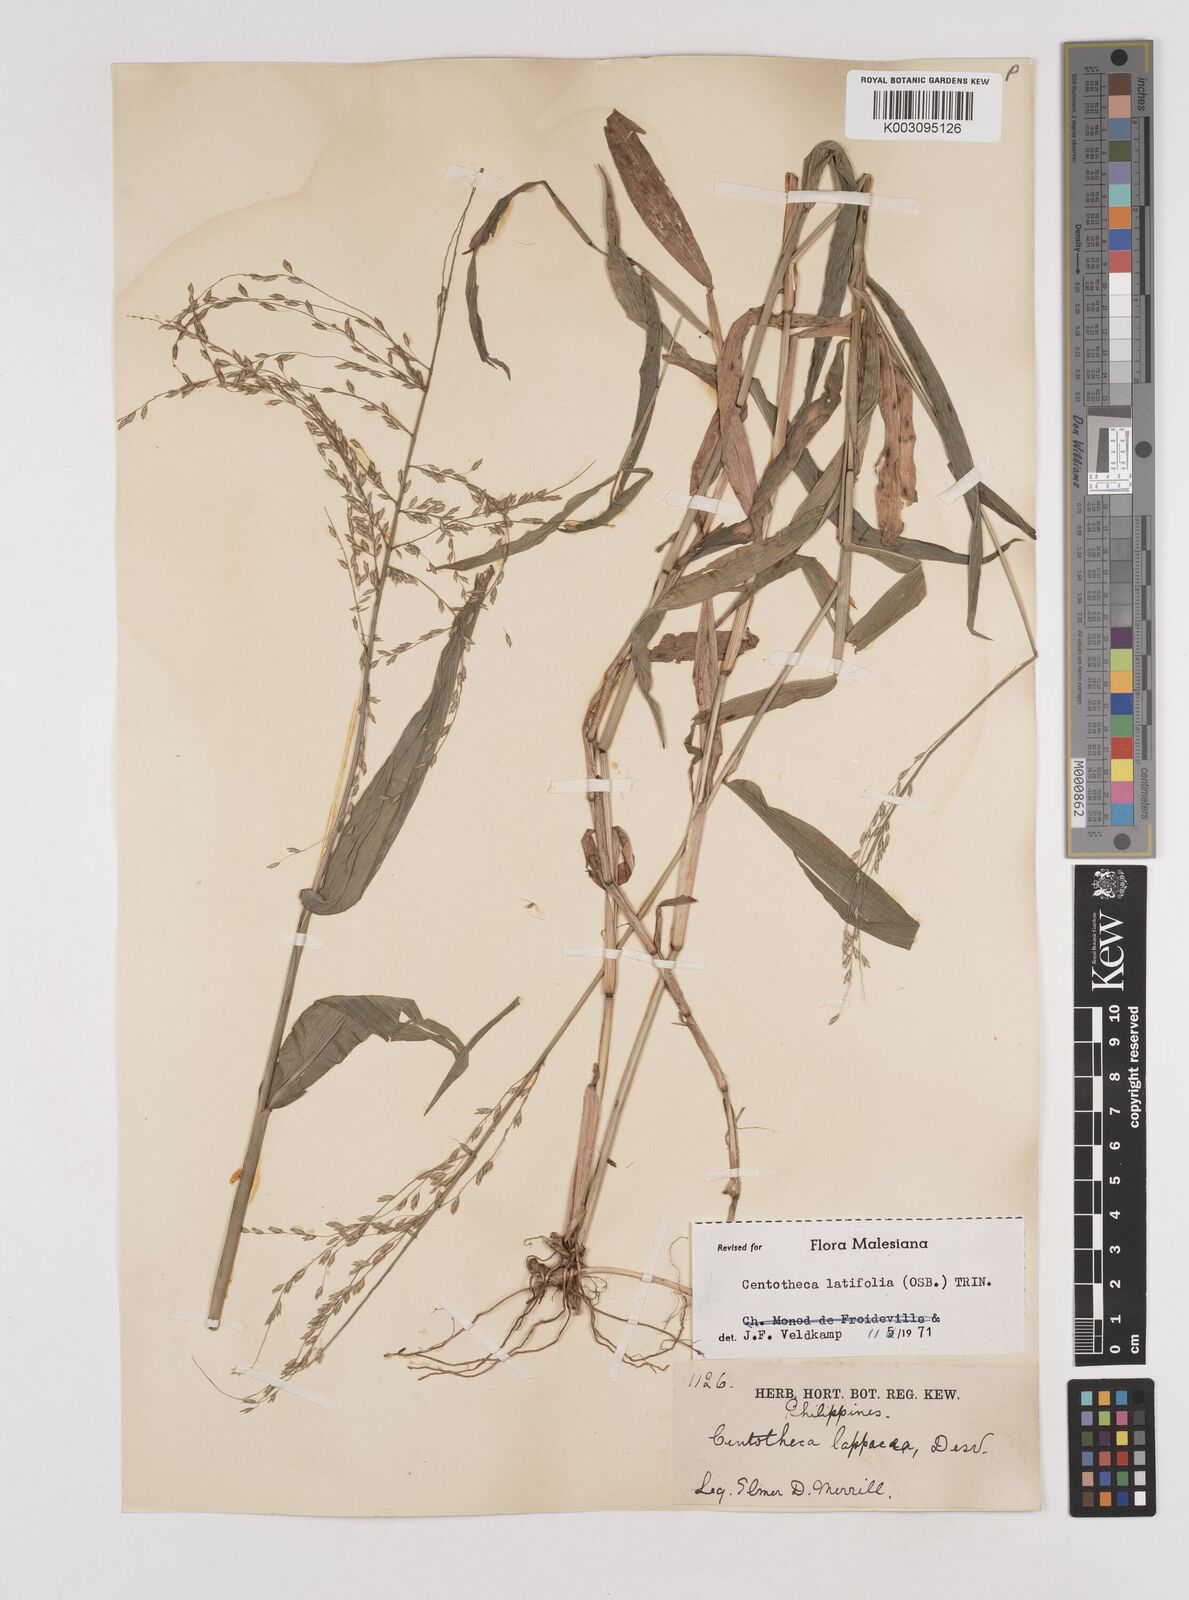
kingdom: Plantae
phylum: Tracheophyta
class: Liliopsida
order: Poales
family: Poaceae
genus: Centotheca
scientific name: Centotheca lappacea
